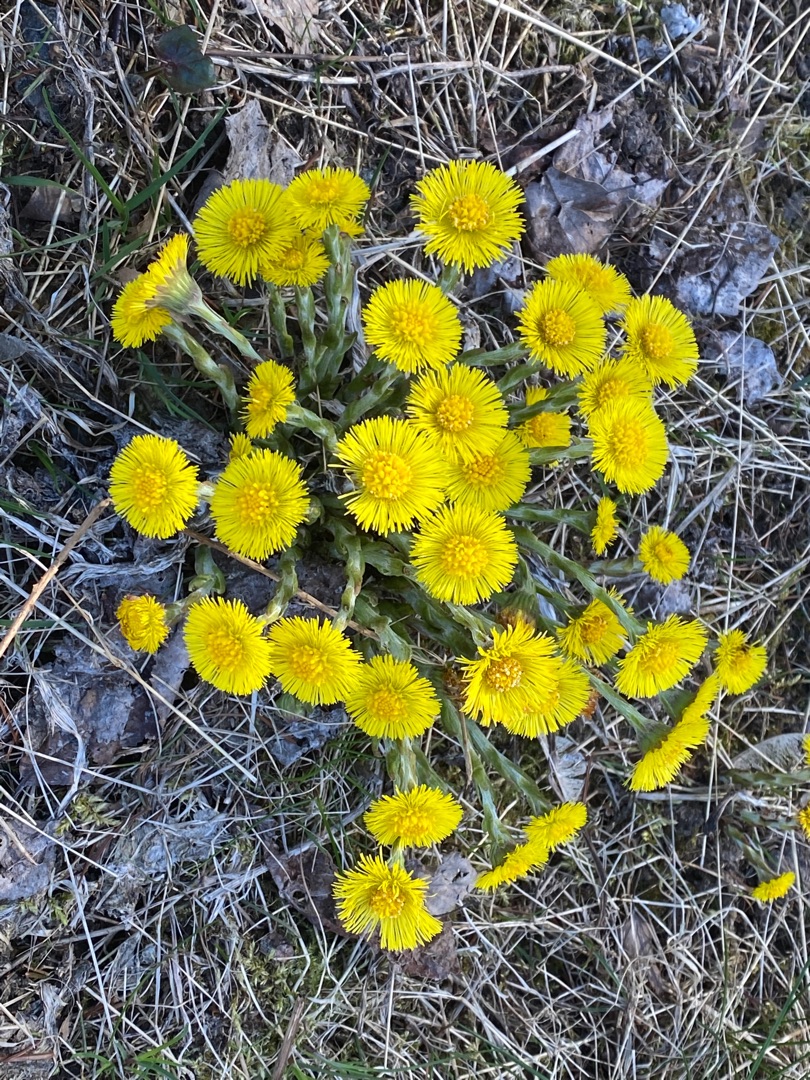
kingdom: Plantae
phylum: Tracheophyta
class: Magnoliopsida
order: Asterales
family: Asteraceae
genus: Tussilago
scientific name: Tussilago farfara
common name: Følfod
